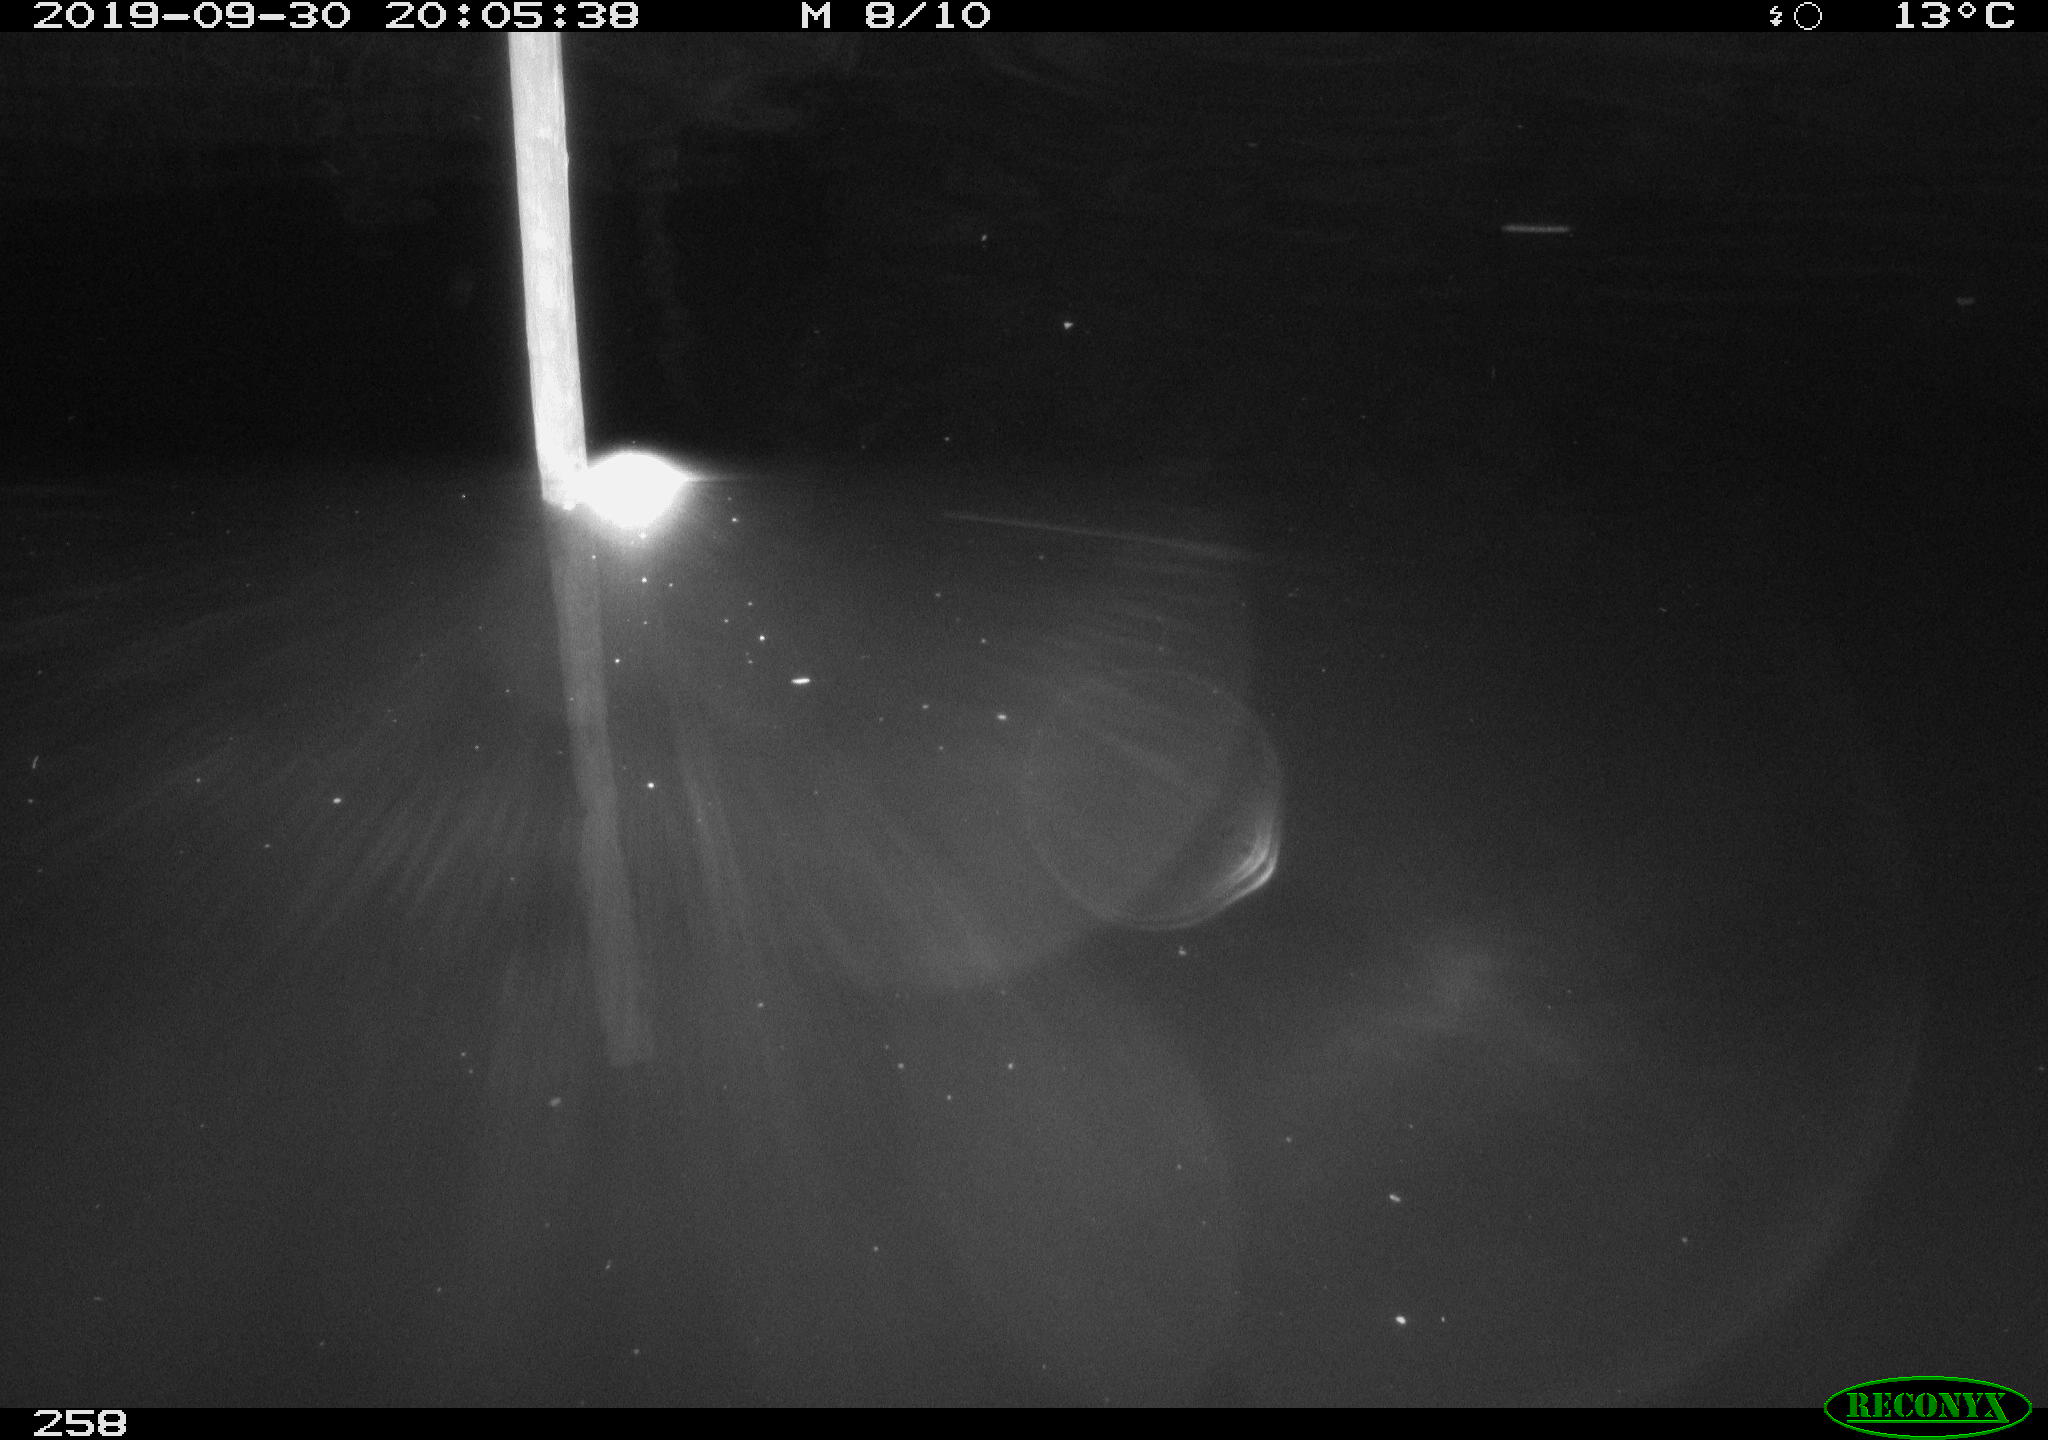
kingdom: Animalia
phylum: Chordata
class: Aves
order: Anseriformes
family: Anatidae
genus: Anas
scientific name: Anas platyrhynchos
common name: Mallard
